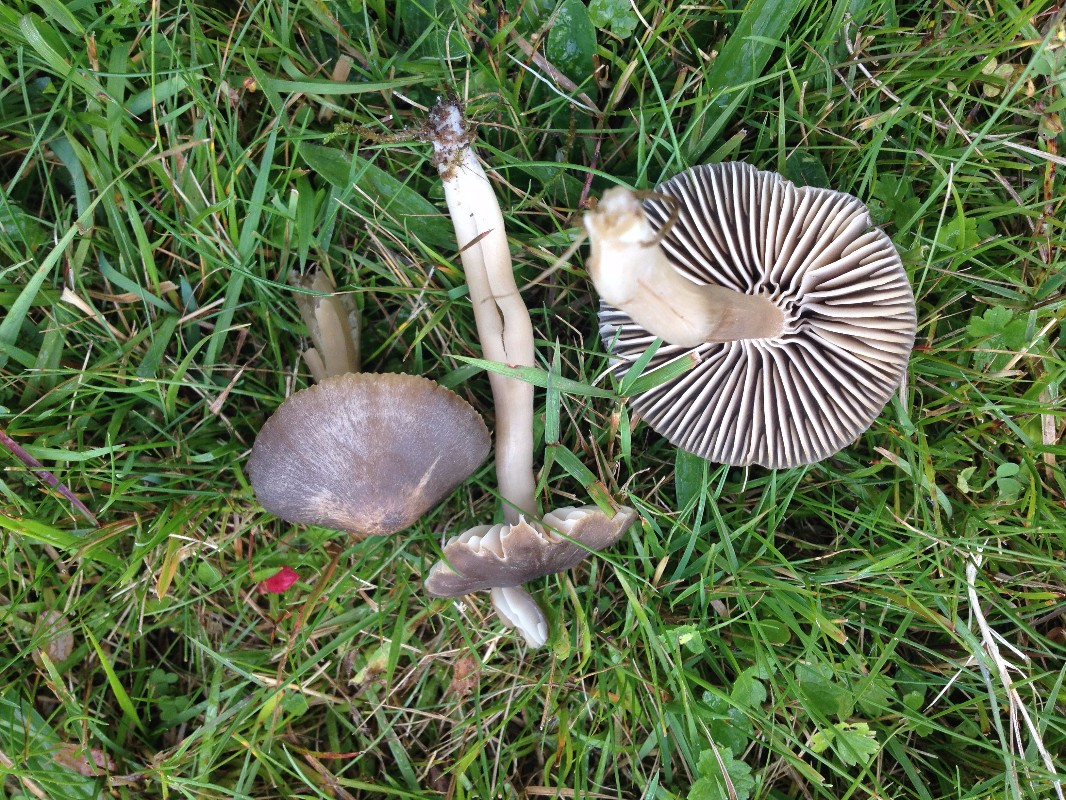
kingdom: Fungi
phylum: Basidiomycota
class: Agaricomycetes
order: Agaricales
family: Hygrophoraceae
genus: Neohygrocybe
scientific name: Neohygrocybe nitrata
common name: stinkende vokshat
